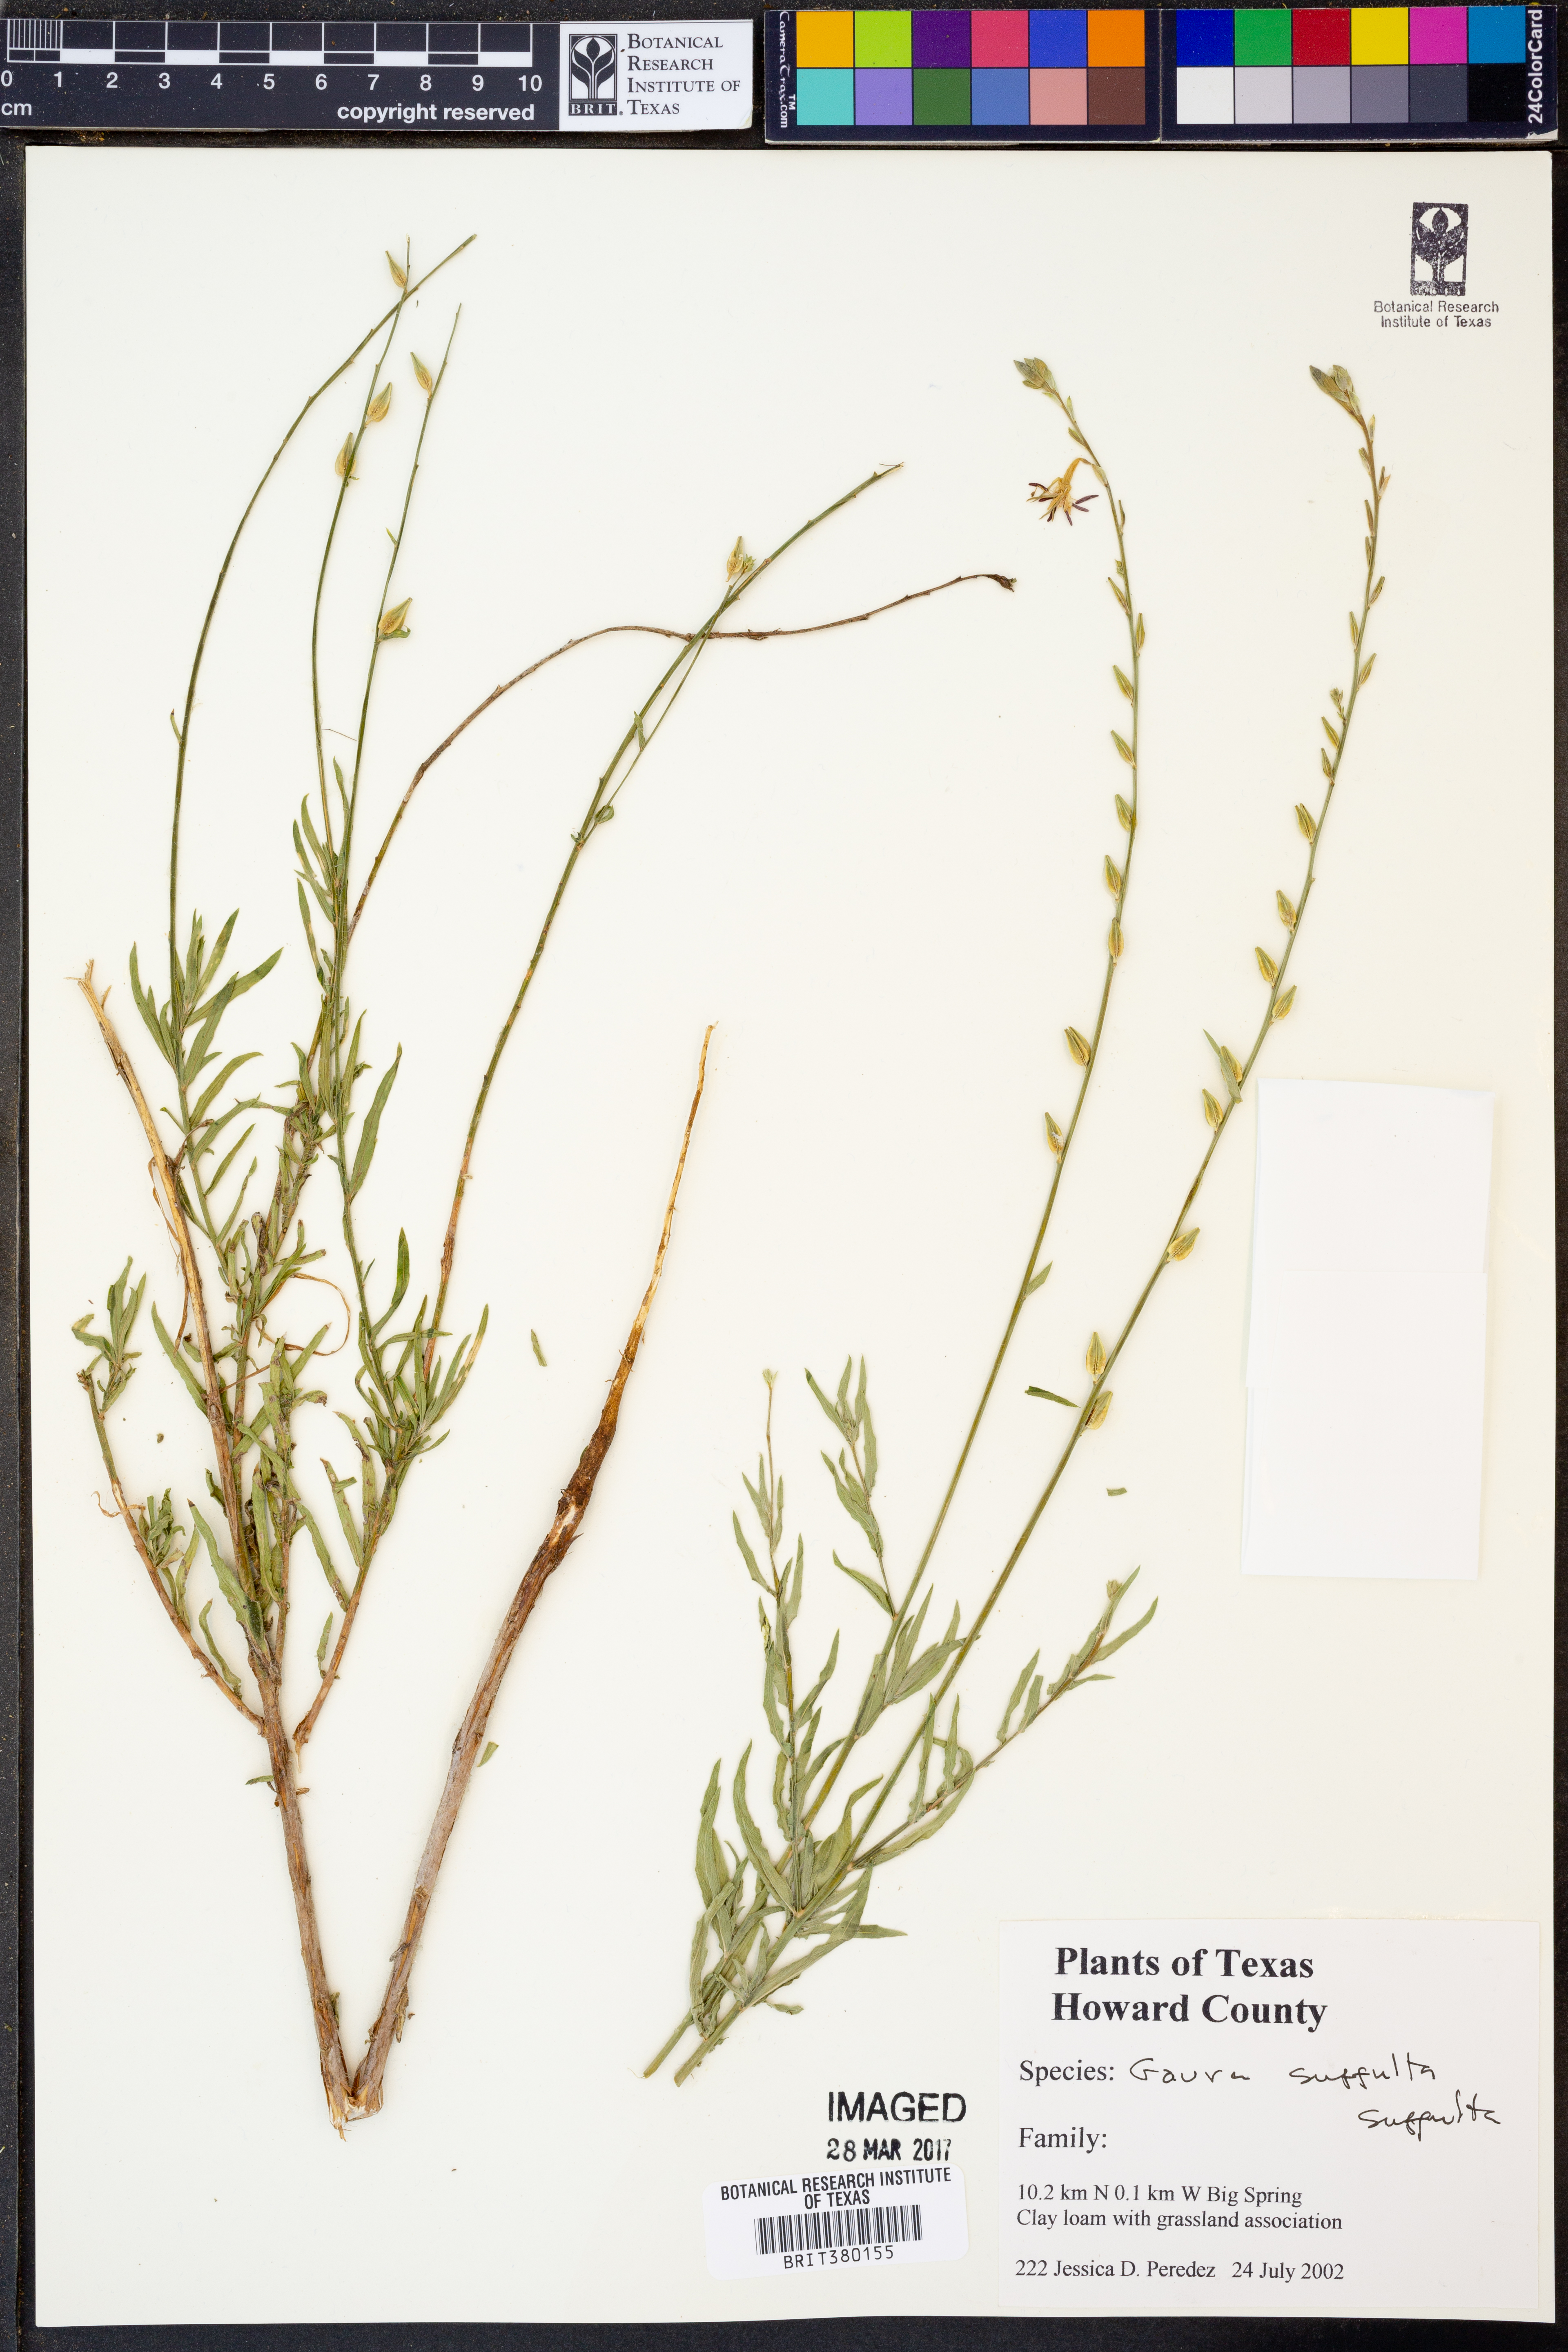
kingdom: Plantae
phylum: Tracheophyta
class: Magnoliopsida
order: Myrtales
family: Onagraceae
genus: Oenothera
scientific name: Oenothera Gaura suffulta
